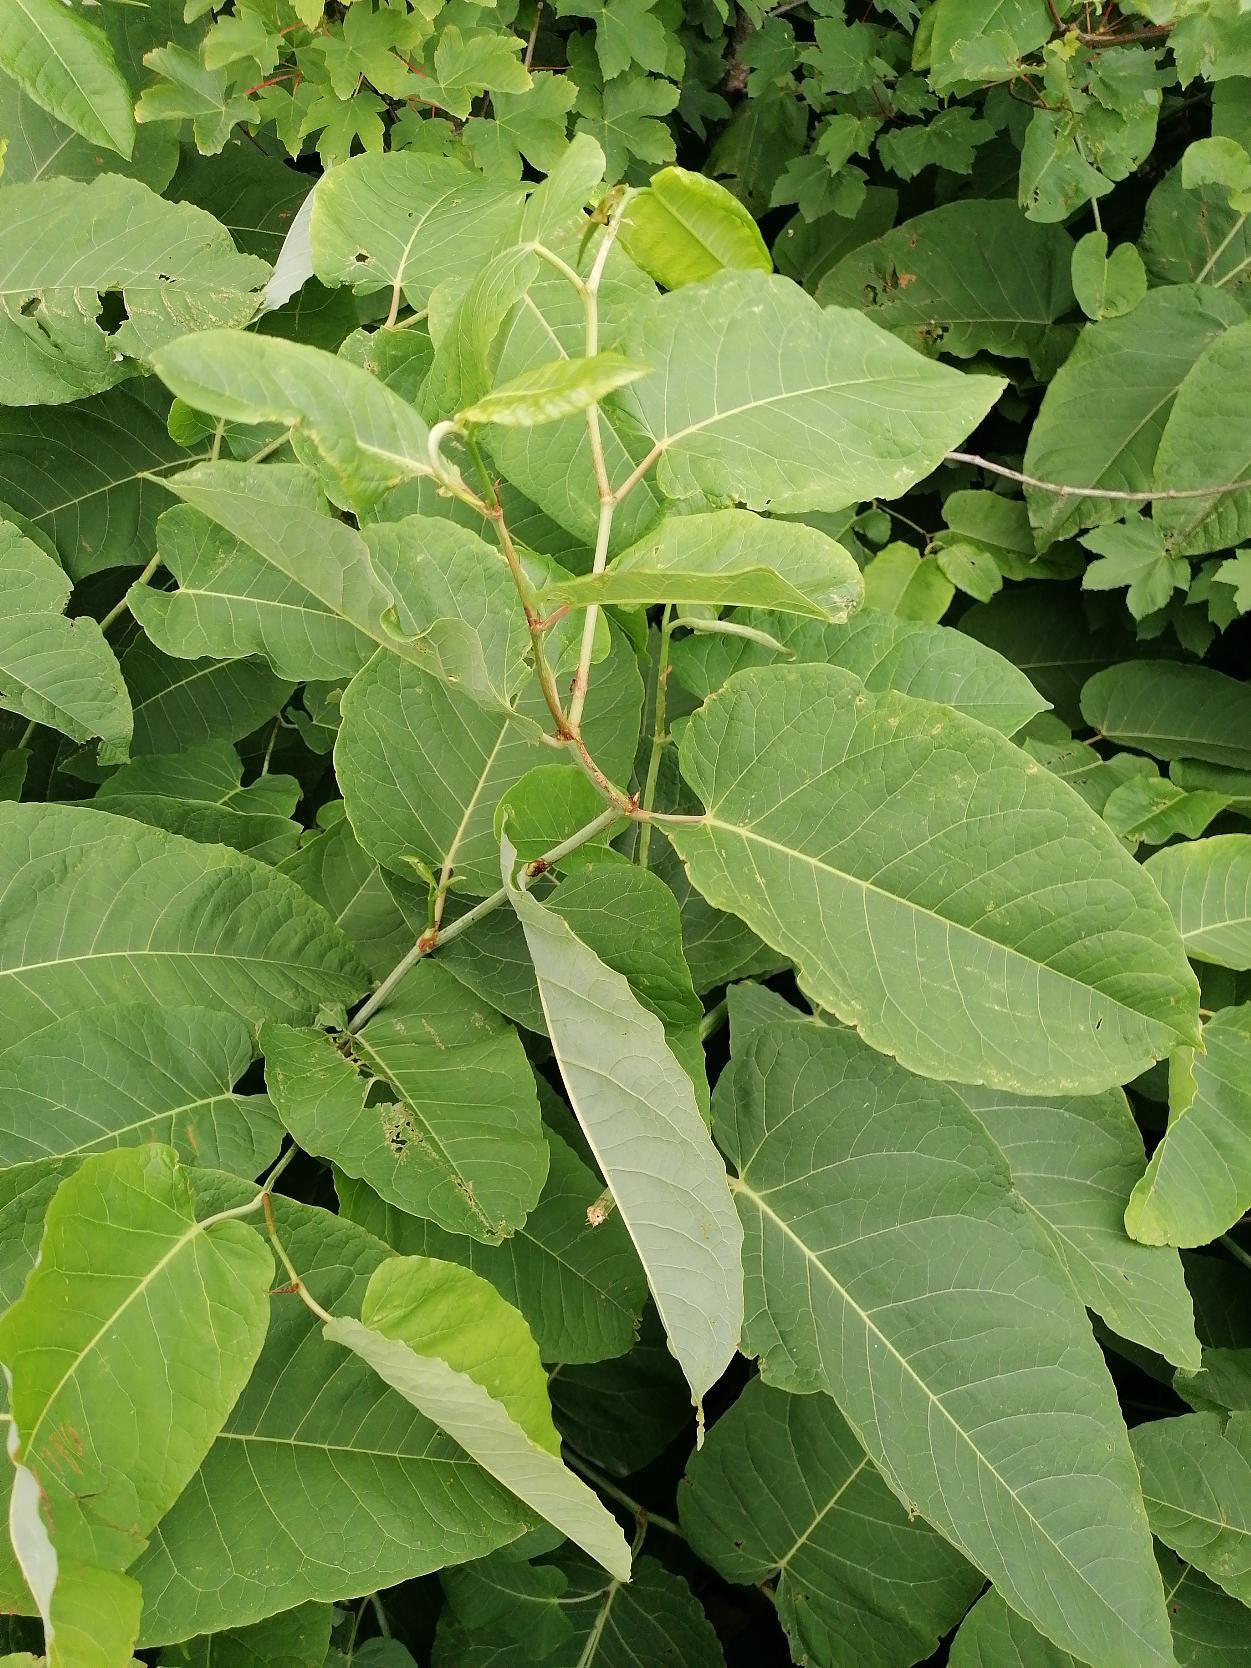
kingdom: Plantae
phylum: Tracheophyta
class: Magnoliopsida
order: Caryophyllales
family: Polygonaceae
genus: Reynoutria
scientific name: Reynoutria sachalinensis
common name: Kæmpe-pileurt
